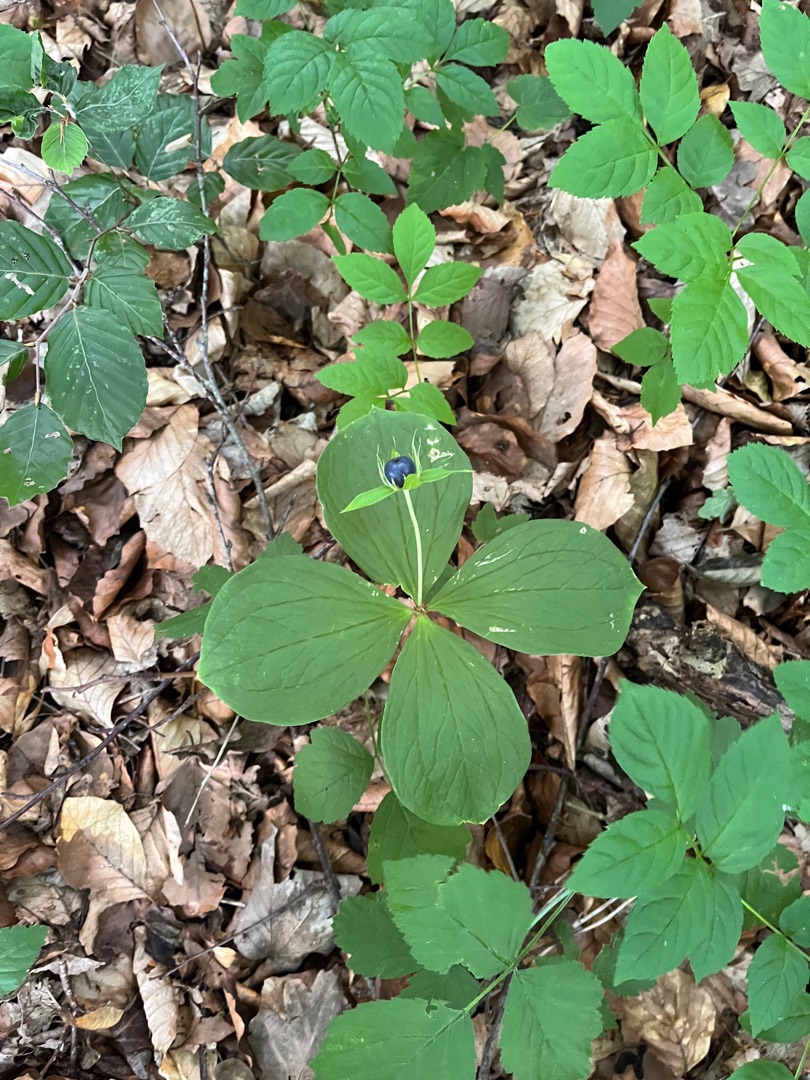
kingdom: Plantae
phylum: Tracheophyta
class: Liliopsida
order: Liliales
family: Melanthiaceae
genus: Paris
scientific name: Paris quadrifolia
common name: Firblad
